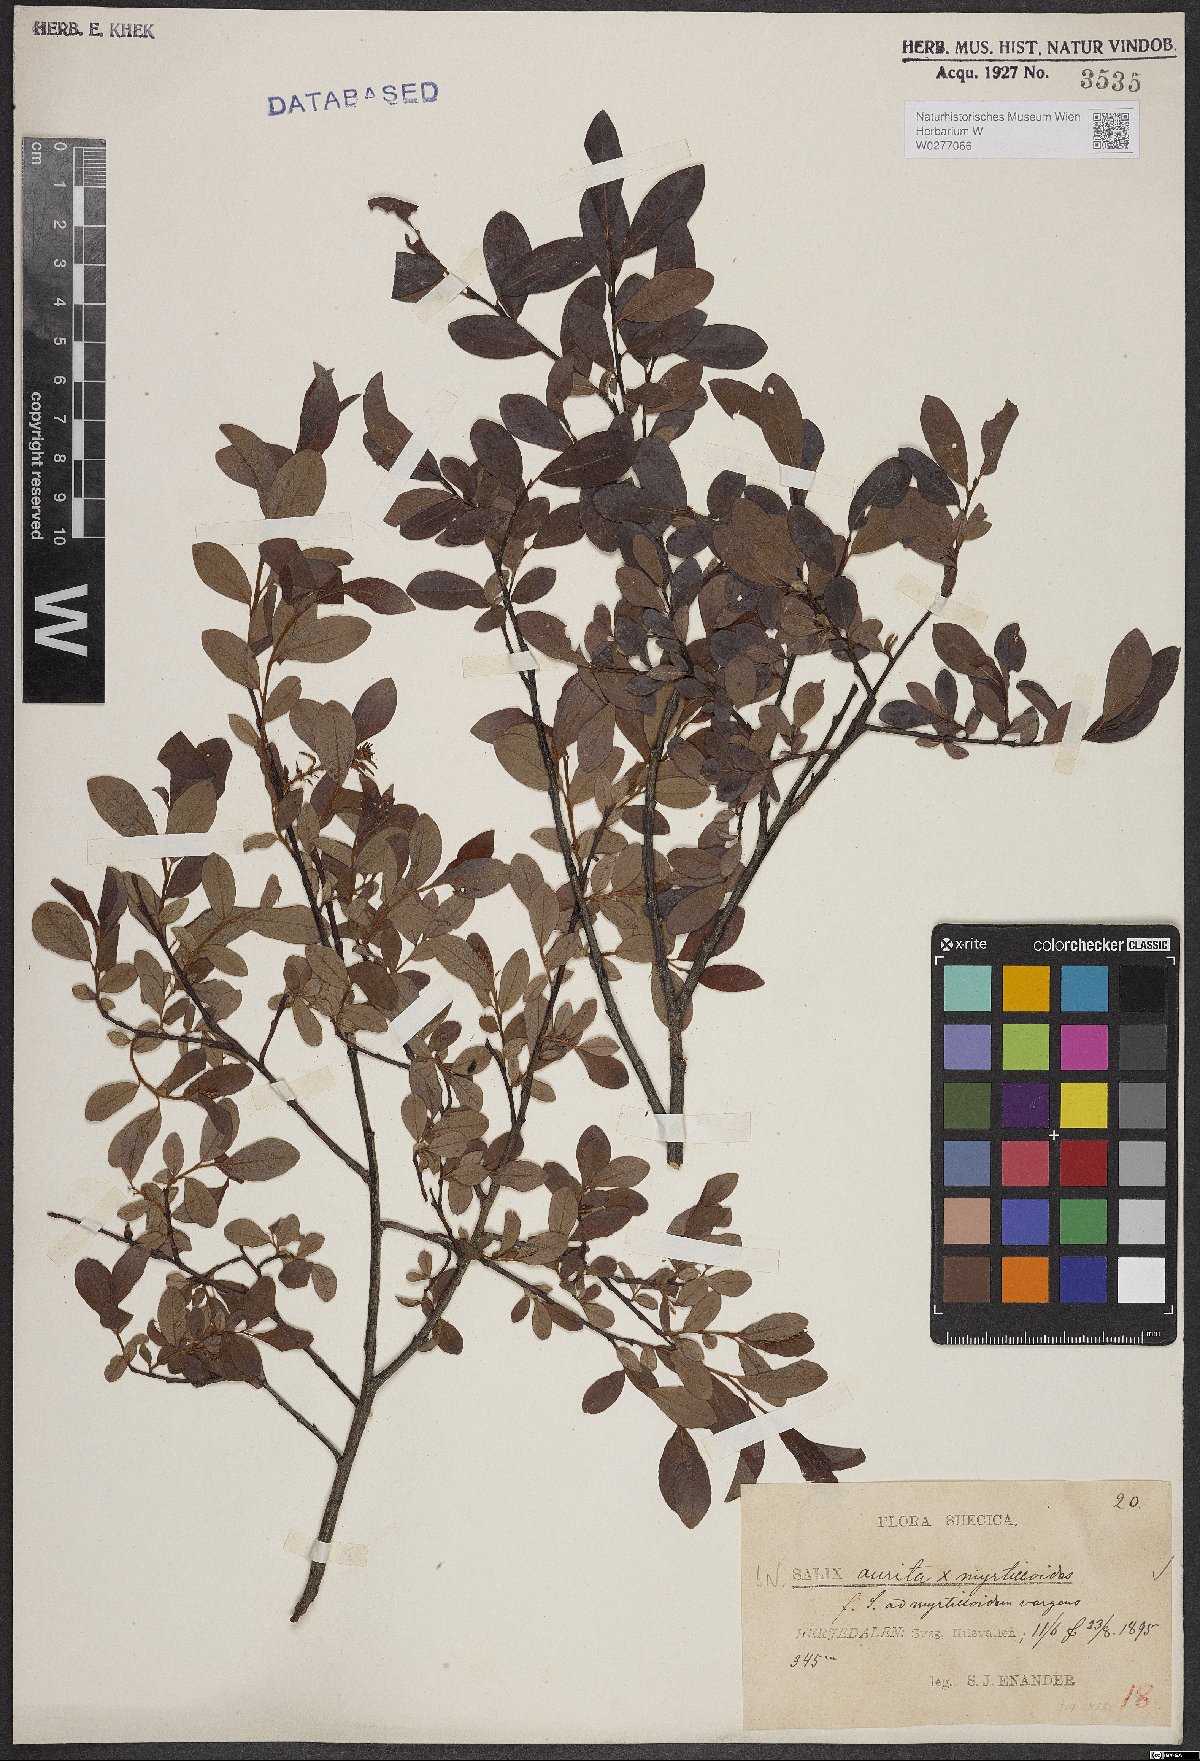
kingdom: Plantae
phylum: Tracheophyta
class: Magnoliopsida
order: Malpighiales
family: Salicaceae
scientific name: Salicaceae
